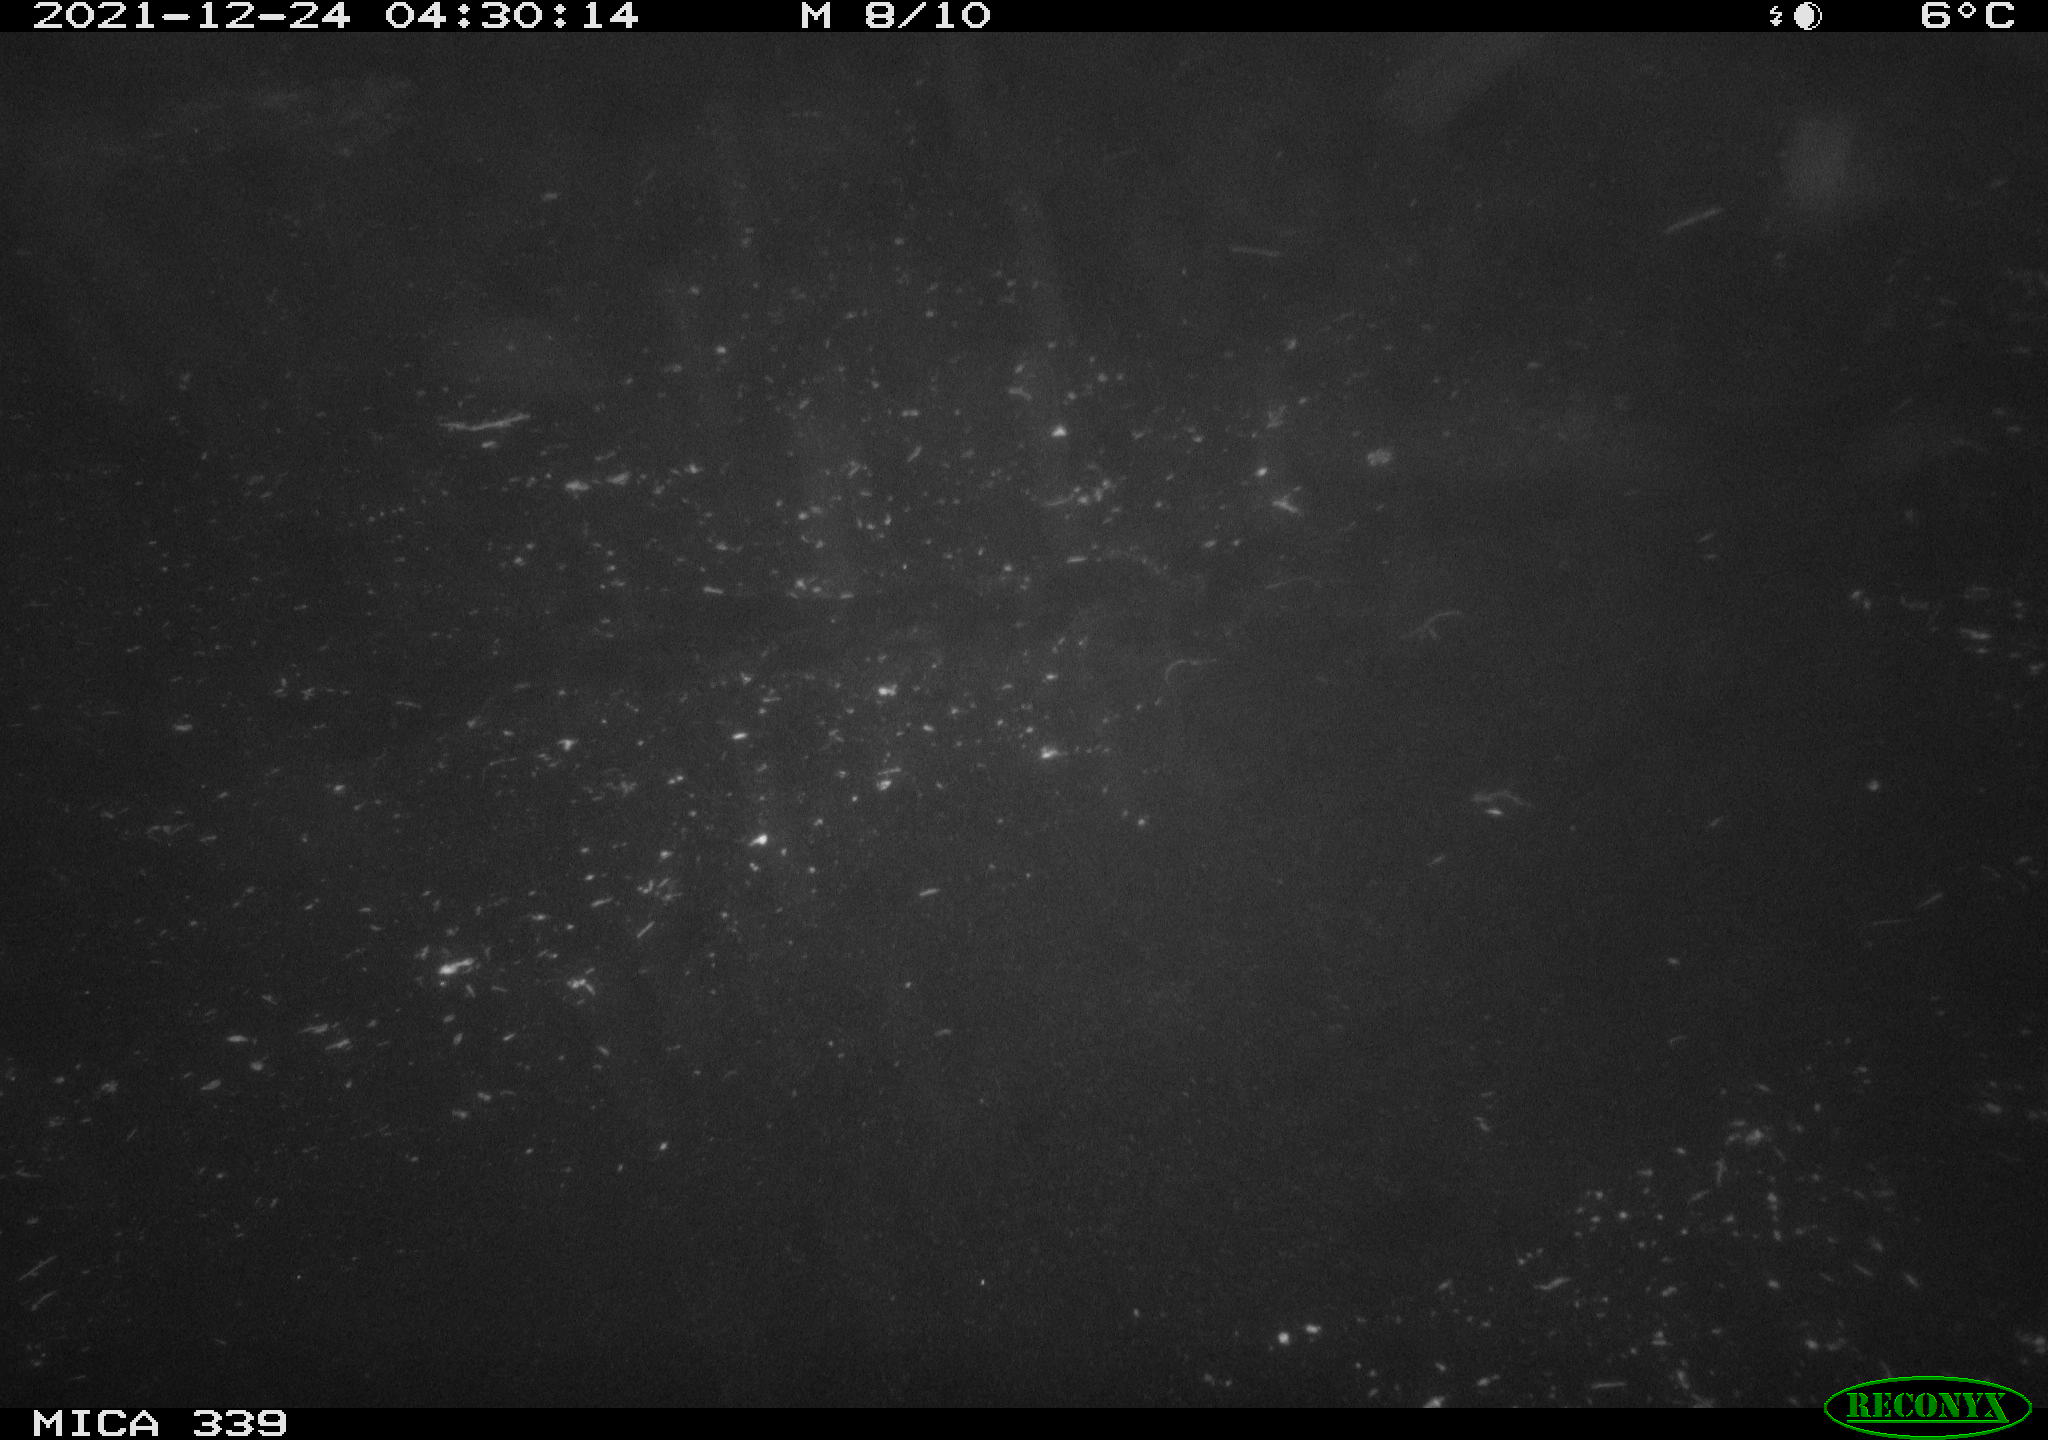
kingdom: Animalia
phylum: Chordata
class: Aves
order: Gruiformes
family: Rallidae
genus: Gallinula
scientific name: Gallinula chloropus
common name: Common moorhen
